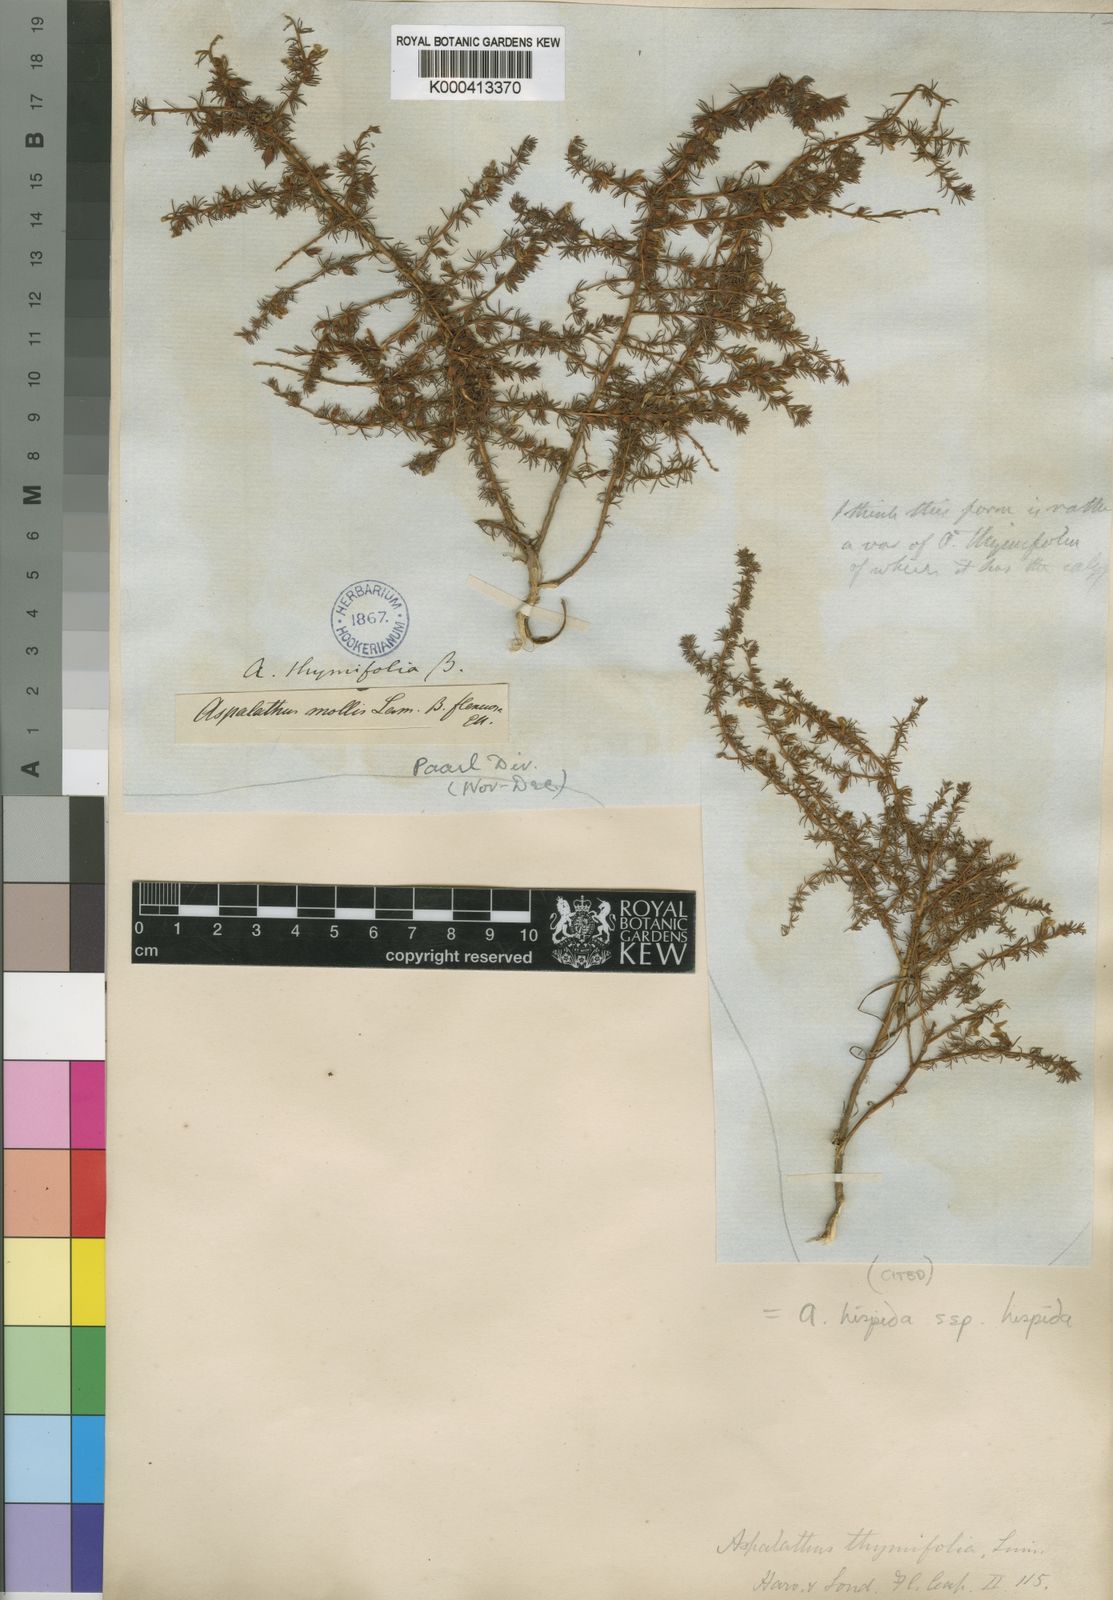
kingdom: Plantae
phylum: Tracheophyta
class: Magnoliopsida
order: Fabales
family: Fabaceae
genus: Aspalathus
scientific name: Aspalathus hispida
